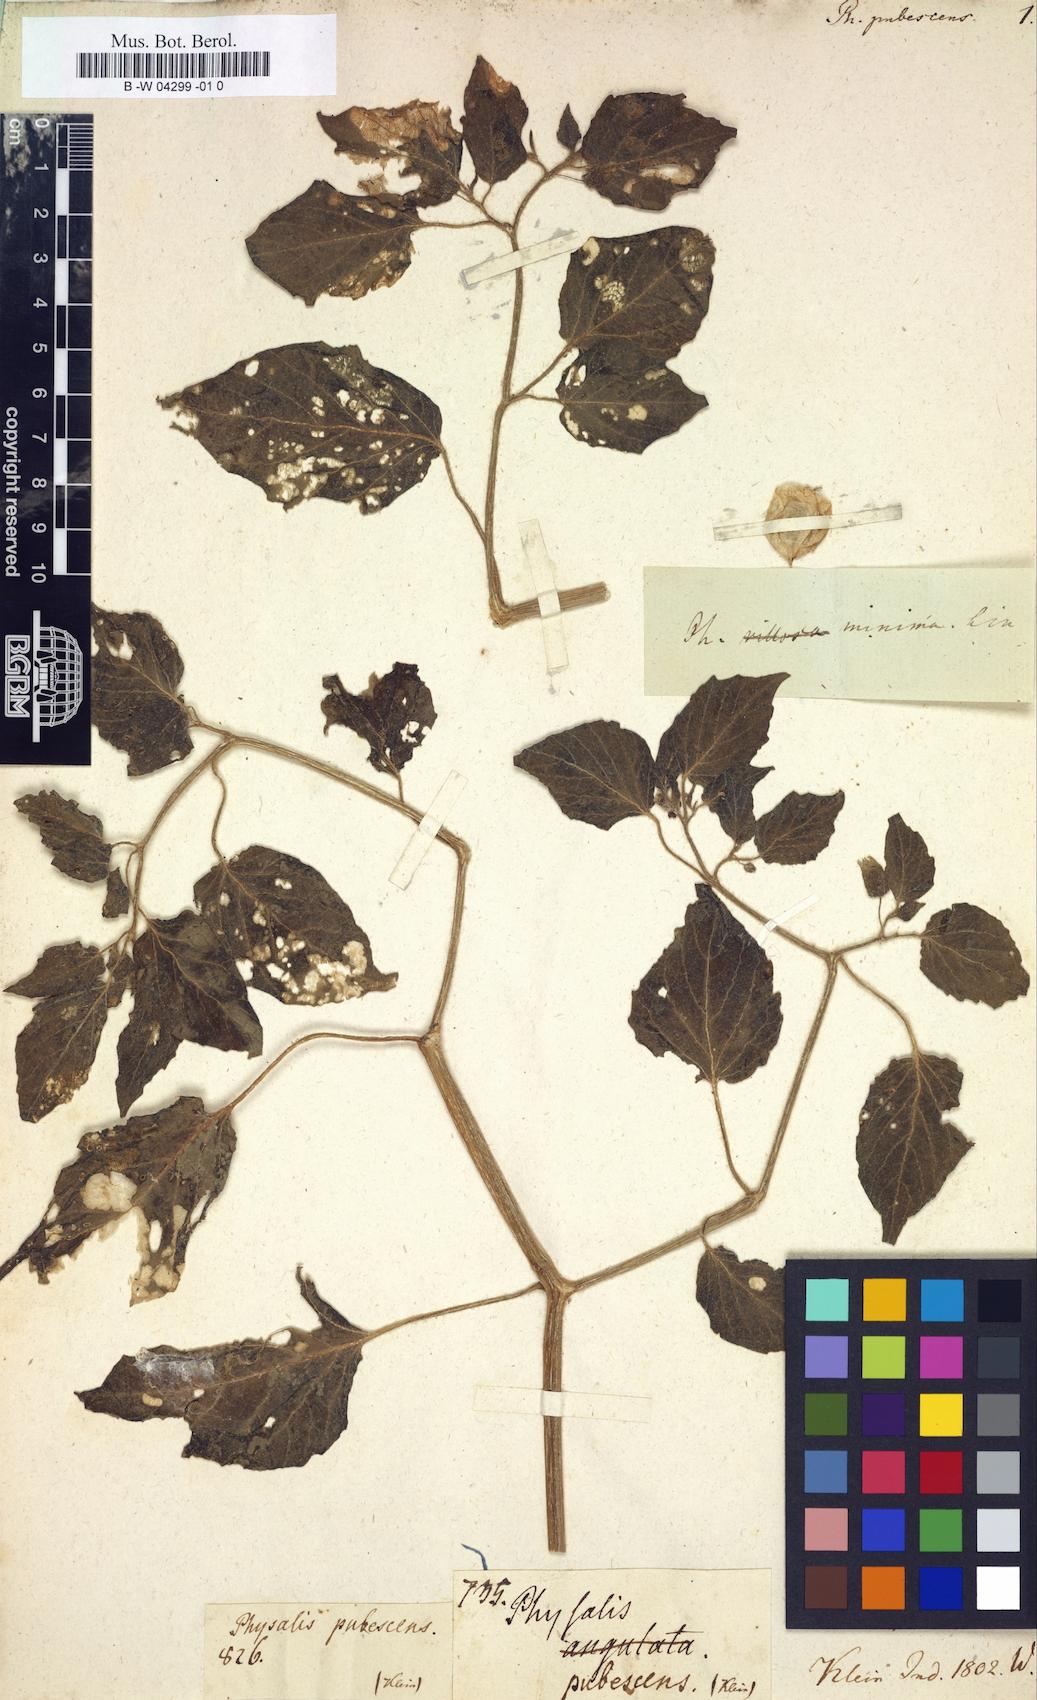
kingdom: Plantae
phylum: Tracheophyta
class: Magnoliopsida
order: Solanales
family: Solanaceae
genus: Physalis
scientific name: Physalis pubescens
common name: Downy ground-cherry
